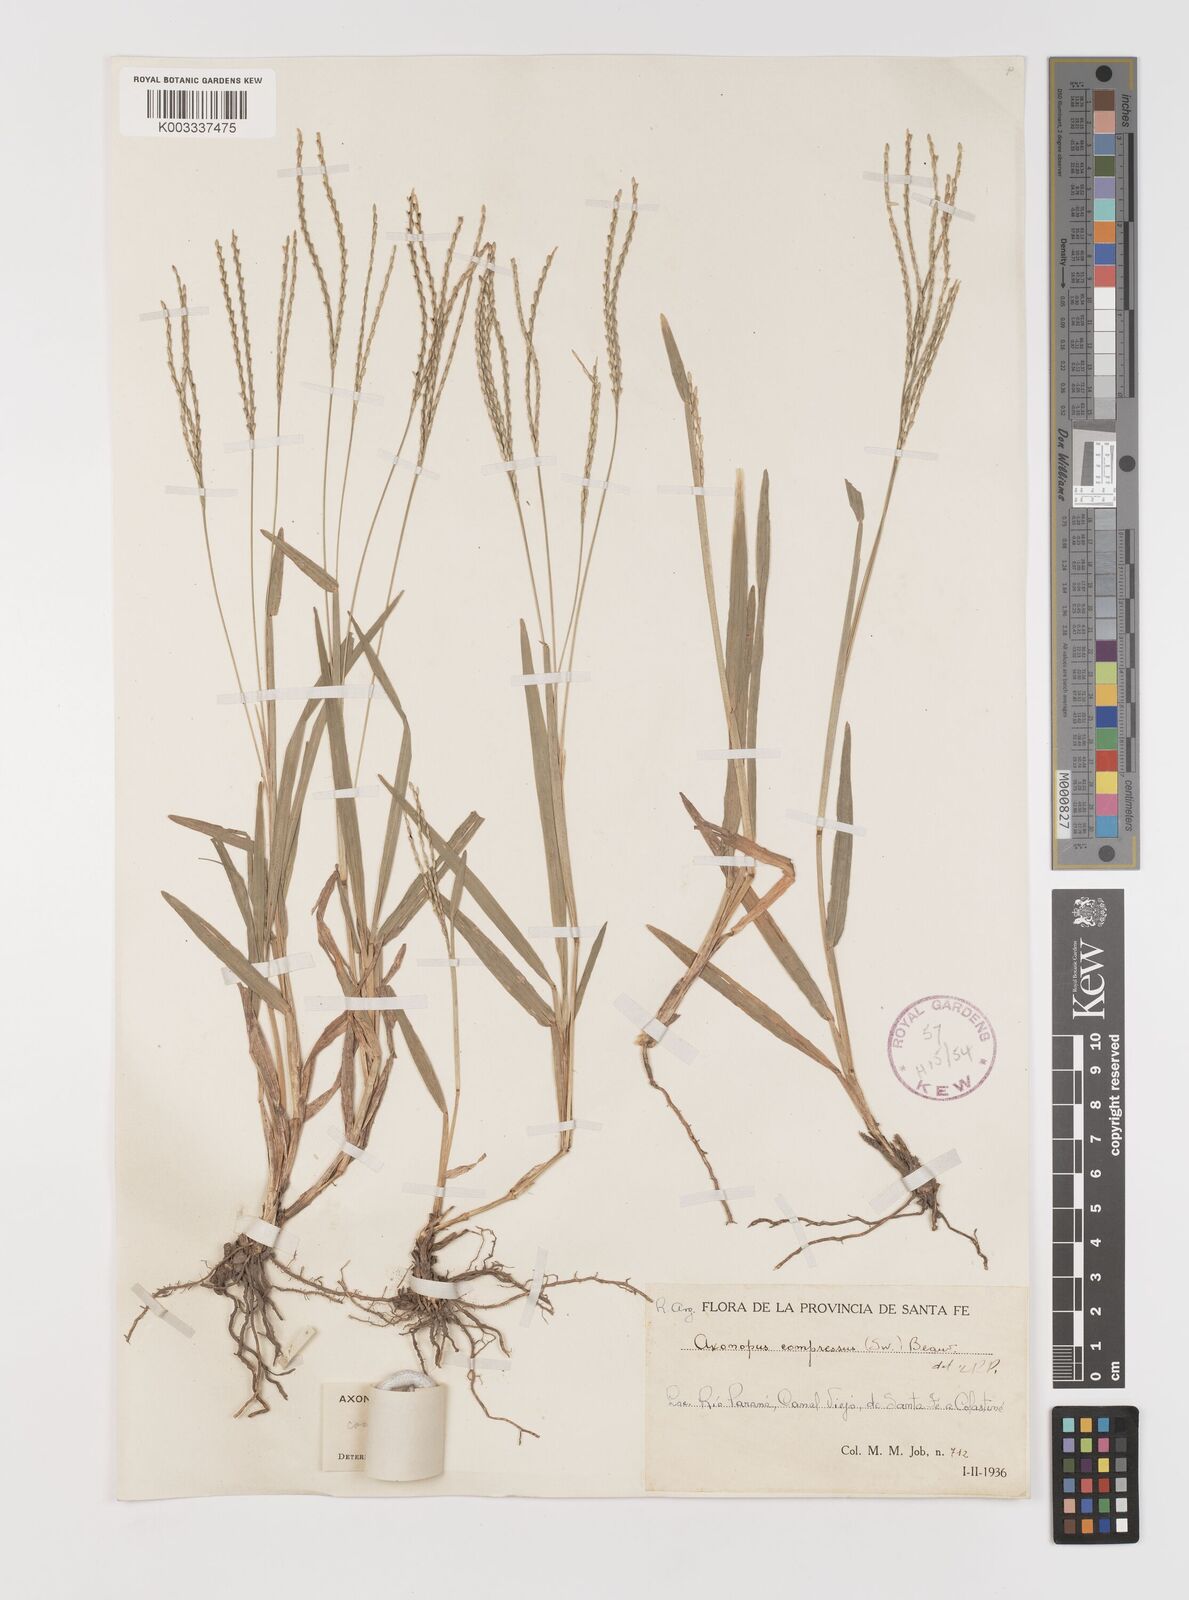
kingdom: Plantae
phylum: Tracheophyta
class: Liliopsida
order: Poales
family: Poaceae
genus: Axonopus
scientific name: Axonopus
